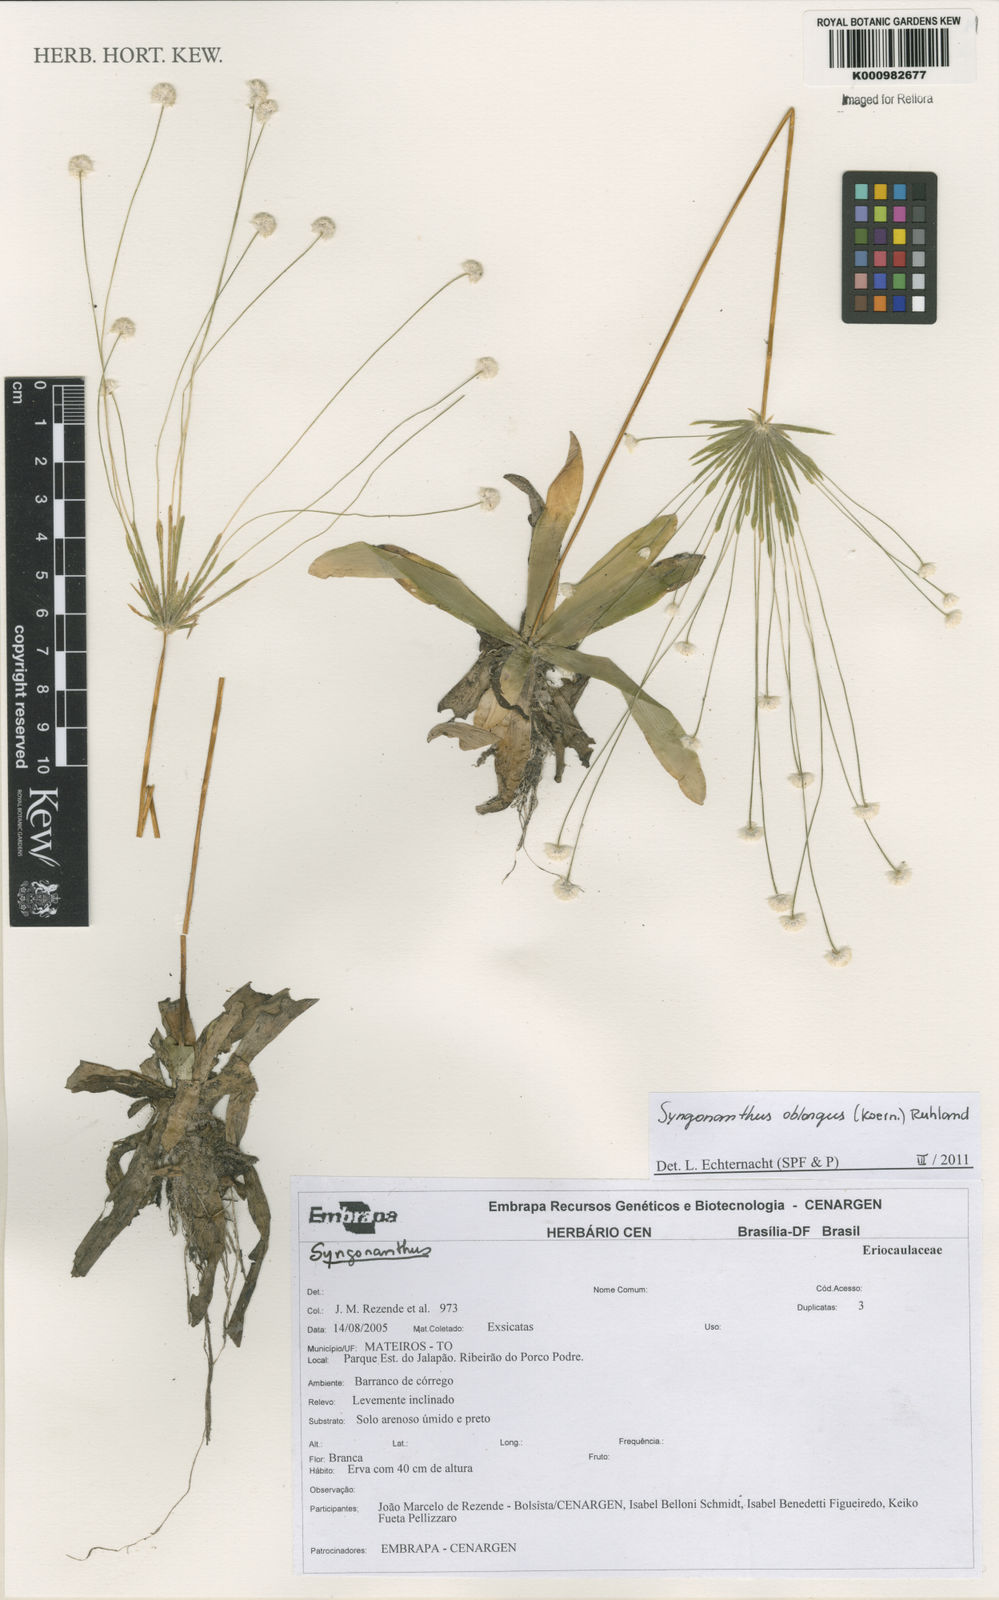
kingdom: Plantae
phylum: Tracheophyta
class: Liliopsida
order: Poales
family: Eriocaulaceae
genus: Syngonanthus
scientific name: Syngonanthus
